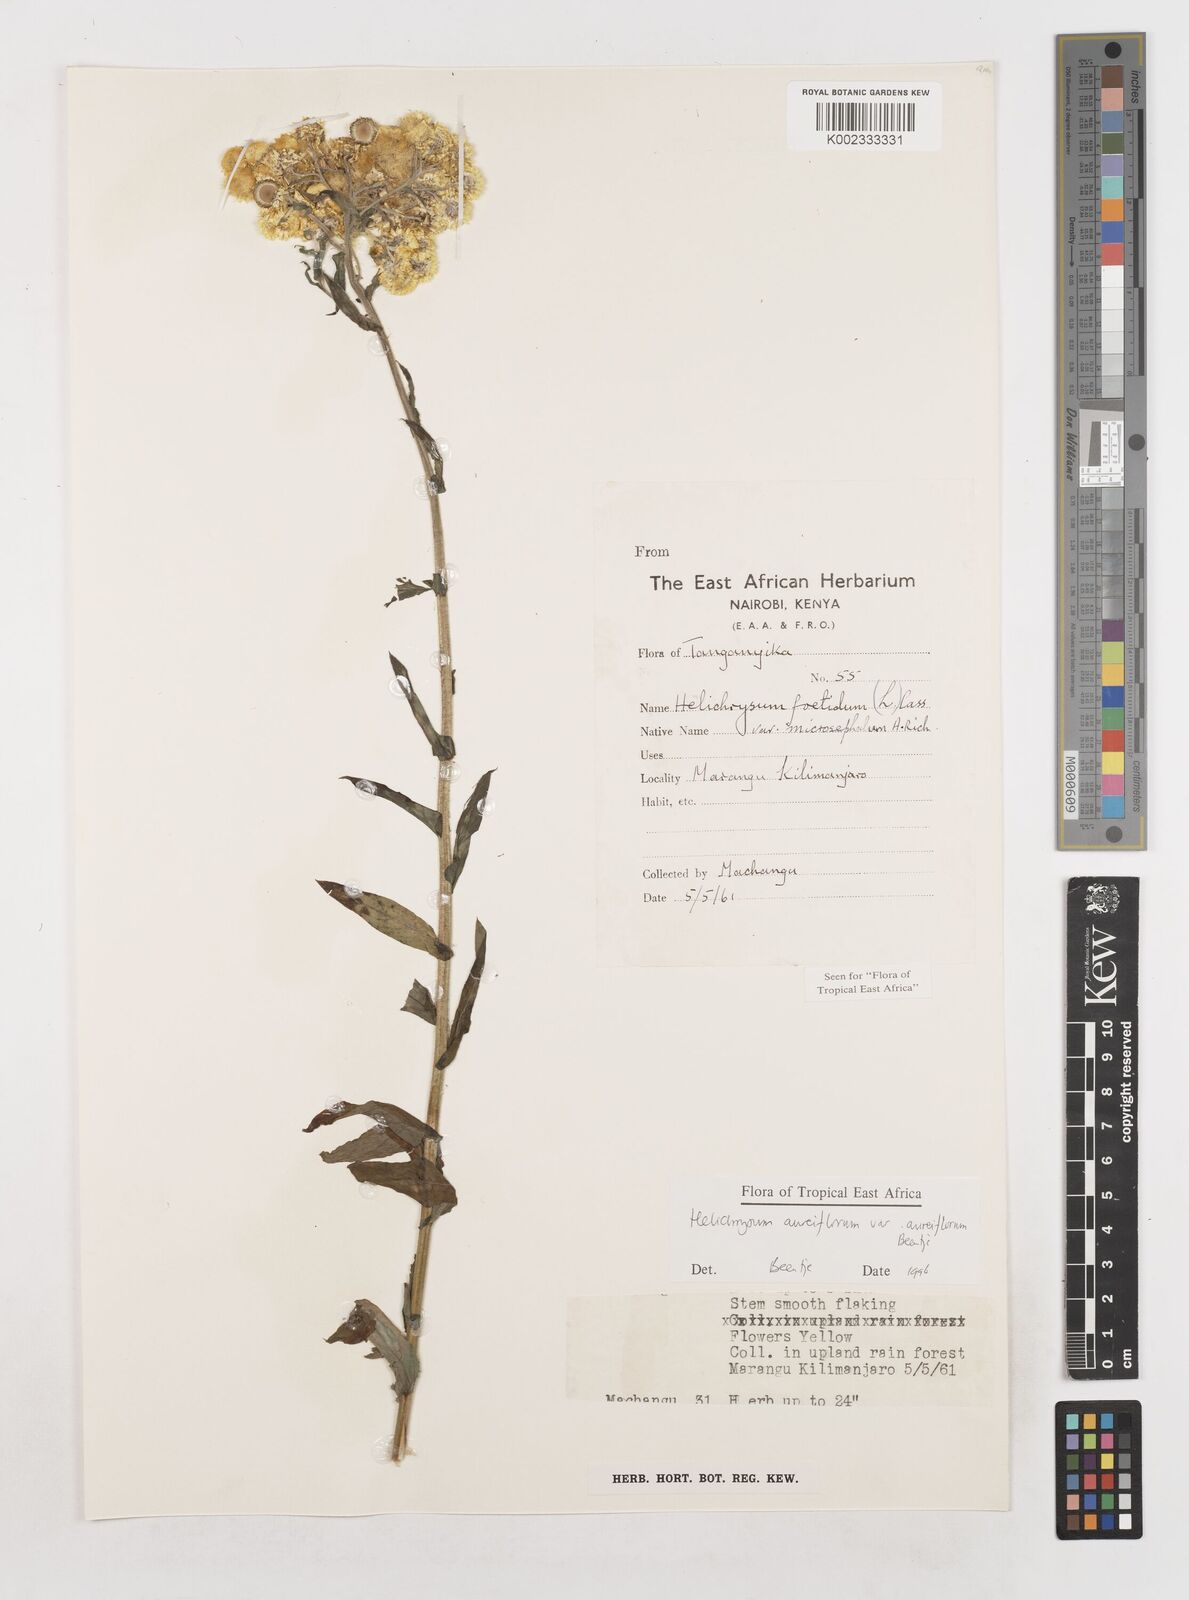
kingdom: Plantae
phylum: Tracheophyta
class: Magnoliopsida
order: Asterales
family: Asteraceae
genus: Helichrysum
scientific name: Helichrysum foetidum
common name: Stinking everlasting
